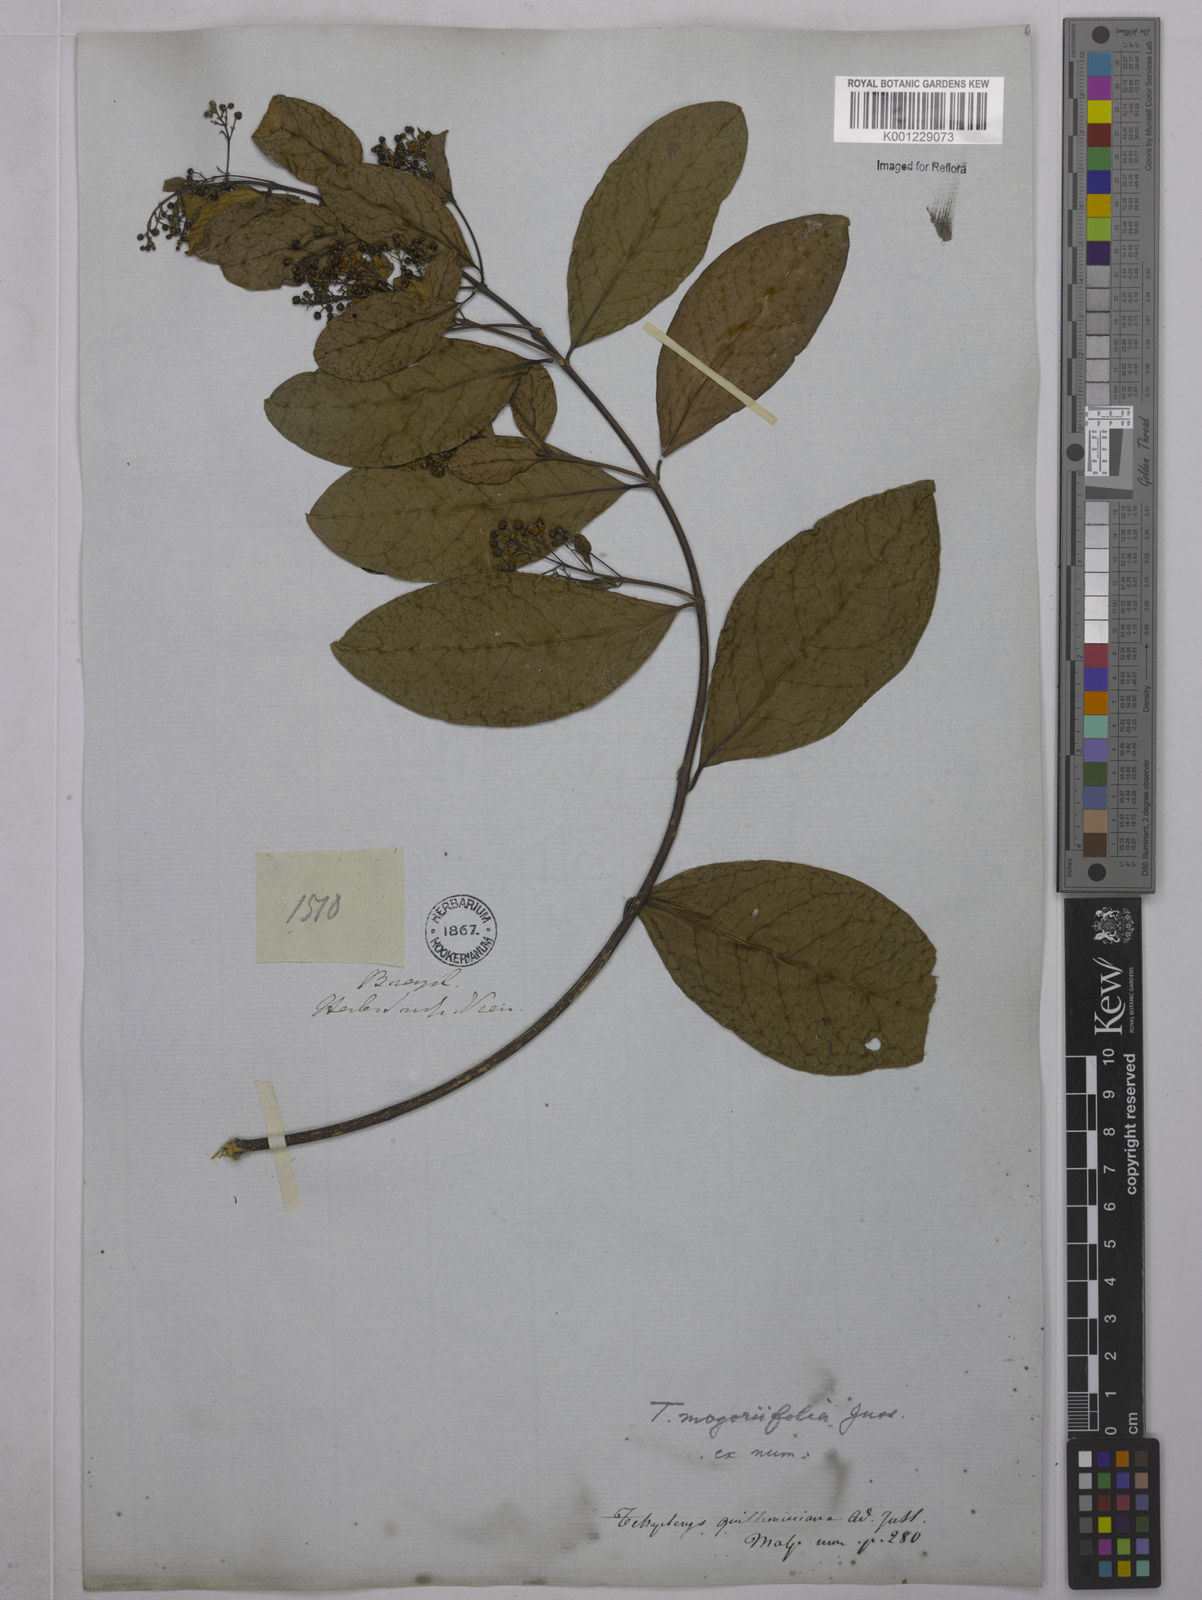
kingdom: Plantae
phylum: Tracheophyta
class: Magnoliopsida
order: Malpighiales
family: Malpighiaceae
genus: Niedenzuella
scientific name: Niedenzuella mogoriifolia
